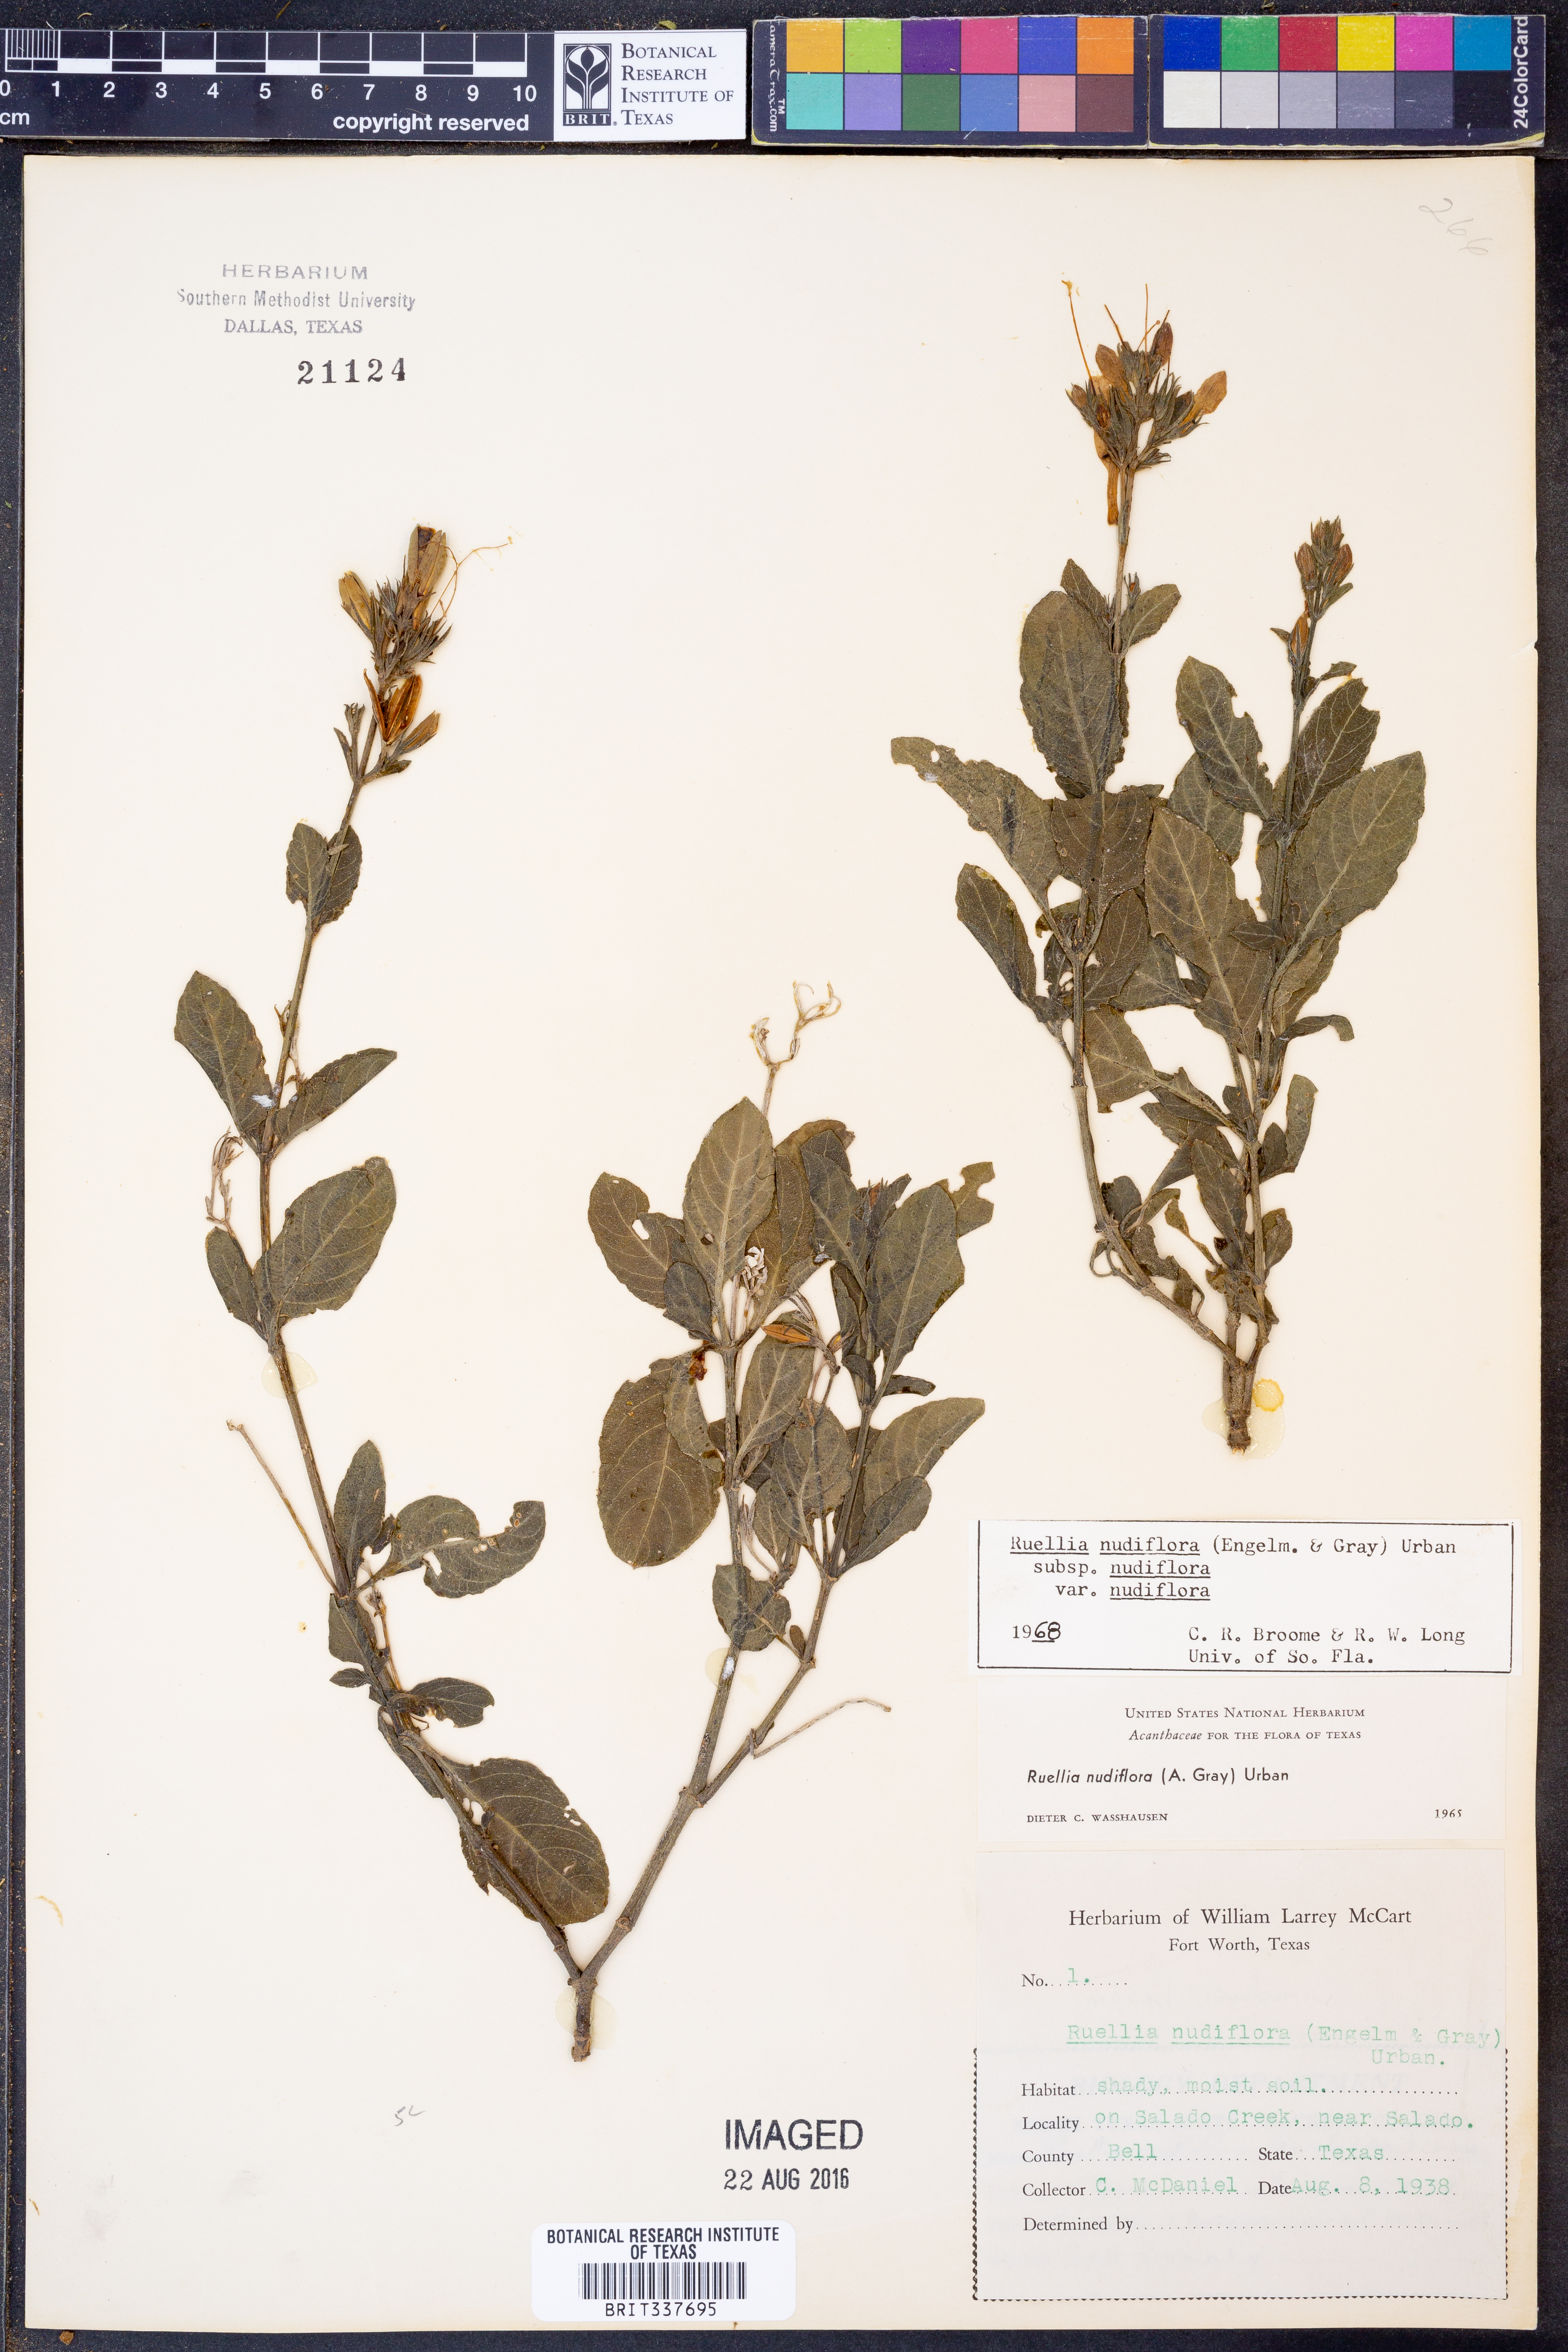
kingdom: Plantae
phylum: Tracheophyta
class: Magnoliopsida
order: Lamiales
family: Acanthaceae
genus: Ruellia
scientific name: Ruellia ciliatiflora
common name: Hairyflower wild petunia
